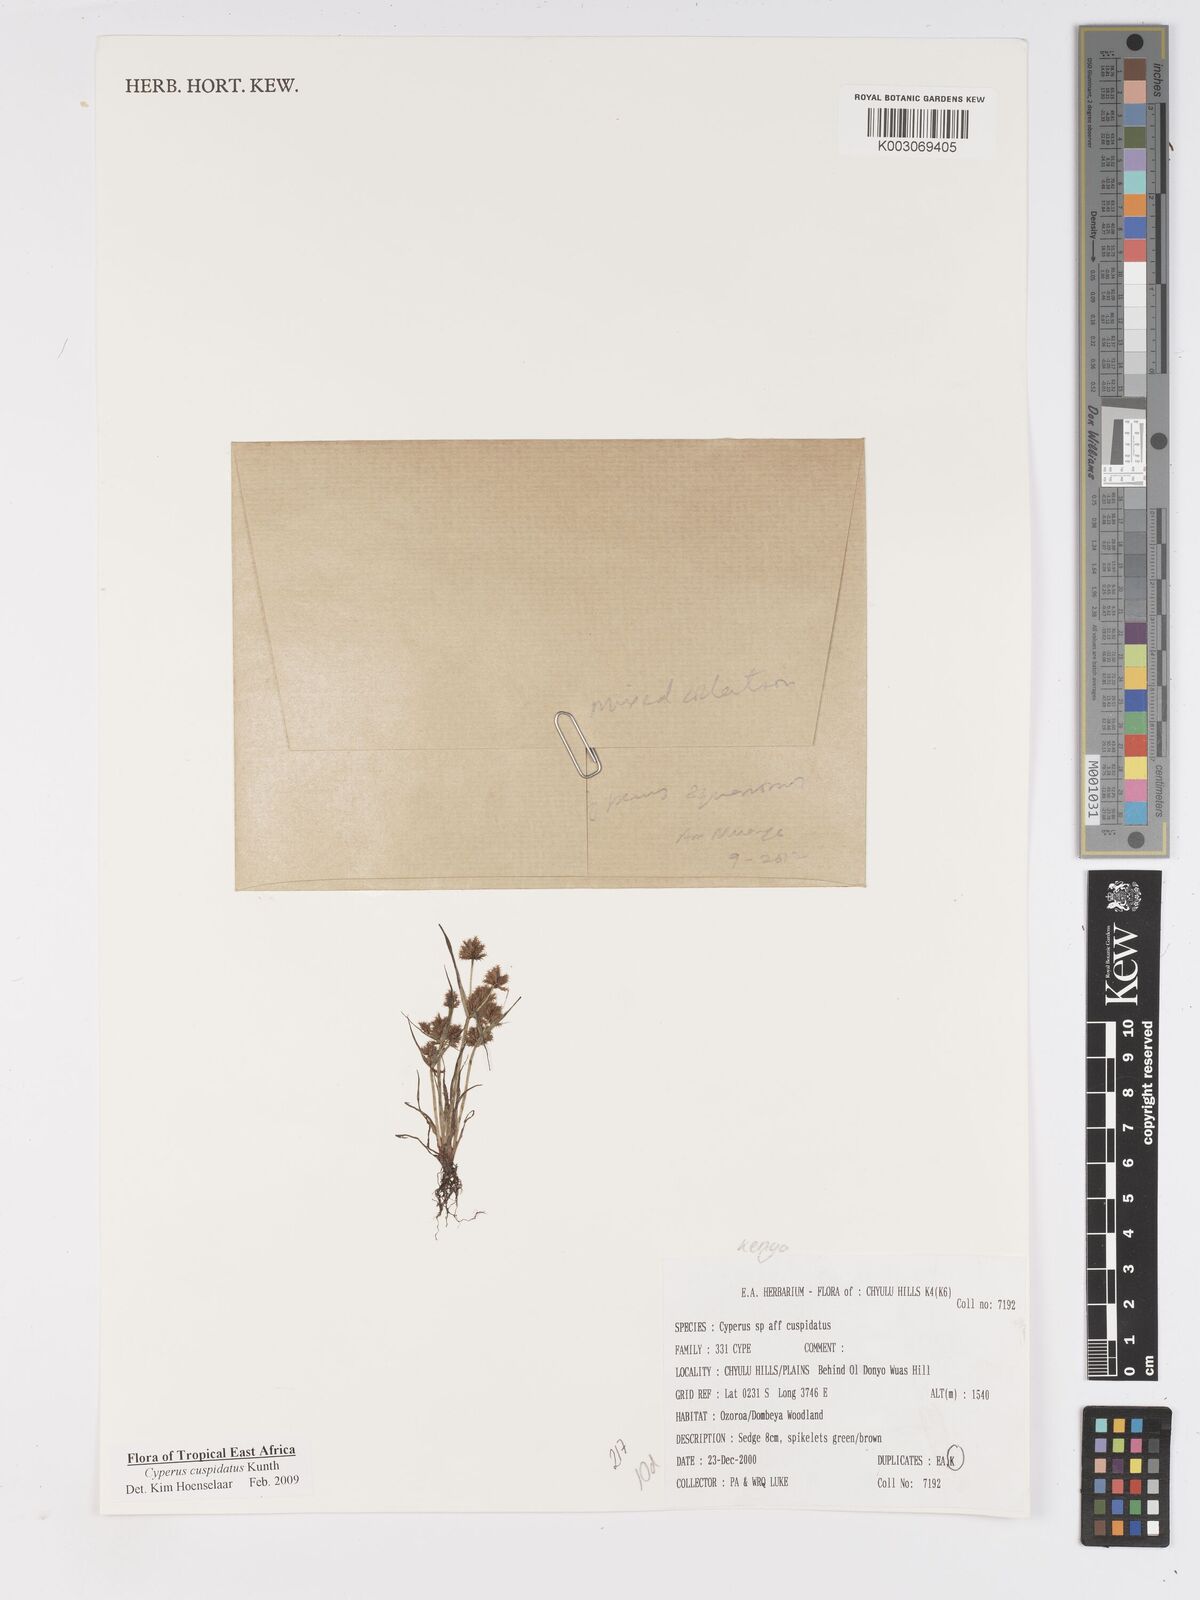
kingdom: Plantae
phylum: Tracheophyta
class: Liliopsida
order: Poales
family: Cyperaceae
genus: Cyperus
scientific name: Cyperus cuspidatus
